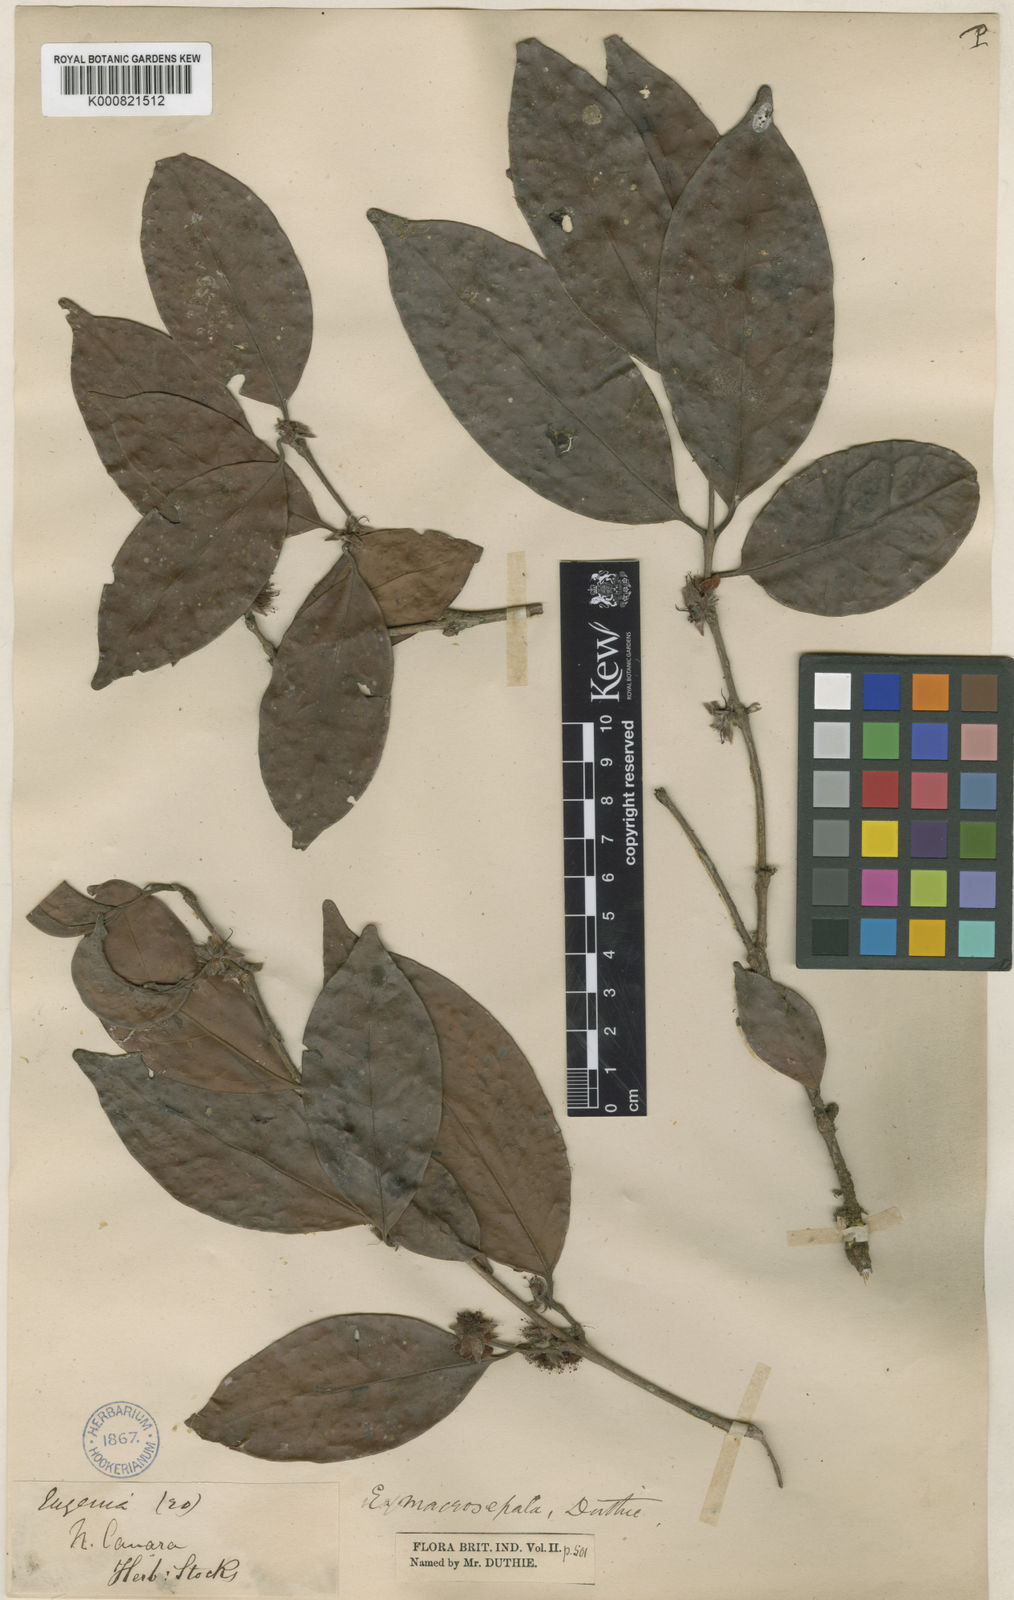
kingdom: Plantae
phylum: Tracheophyta
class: Magnoliopsida
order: Myrtales
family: Myrtaceae
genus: Eugenia
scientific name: Eugenia macrosepala
